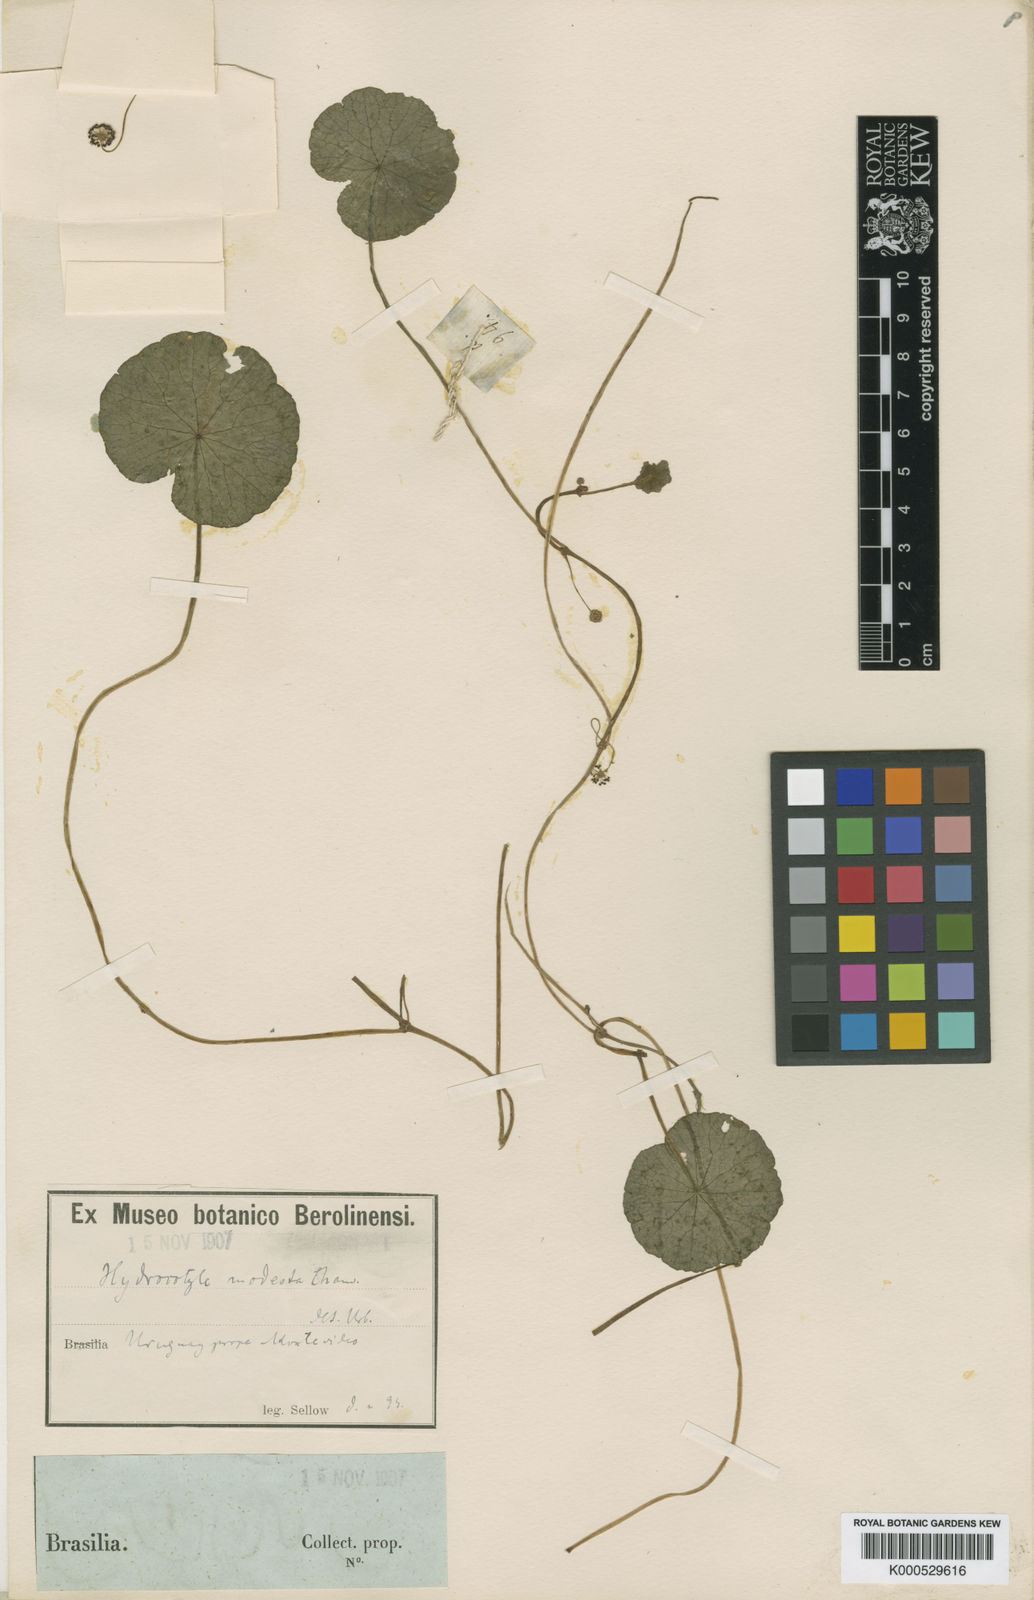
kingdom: Plantae
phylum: Tracheophyta
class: Magnoliopsida
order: Apiales
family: Araliaceae
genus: Hydrocotyle
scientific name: Hydrocotyle modesta
